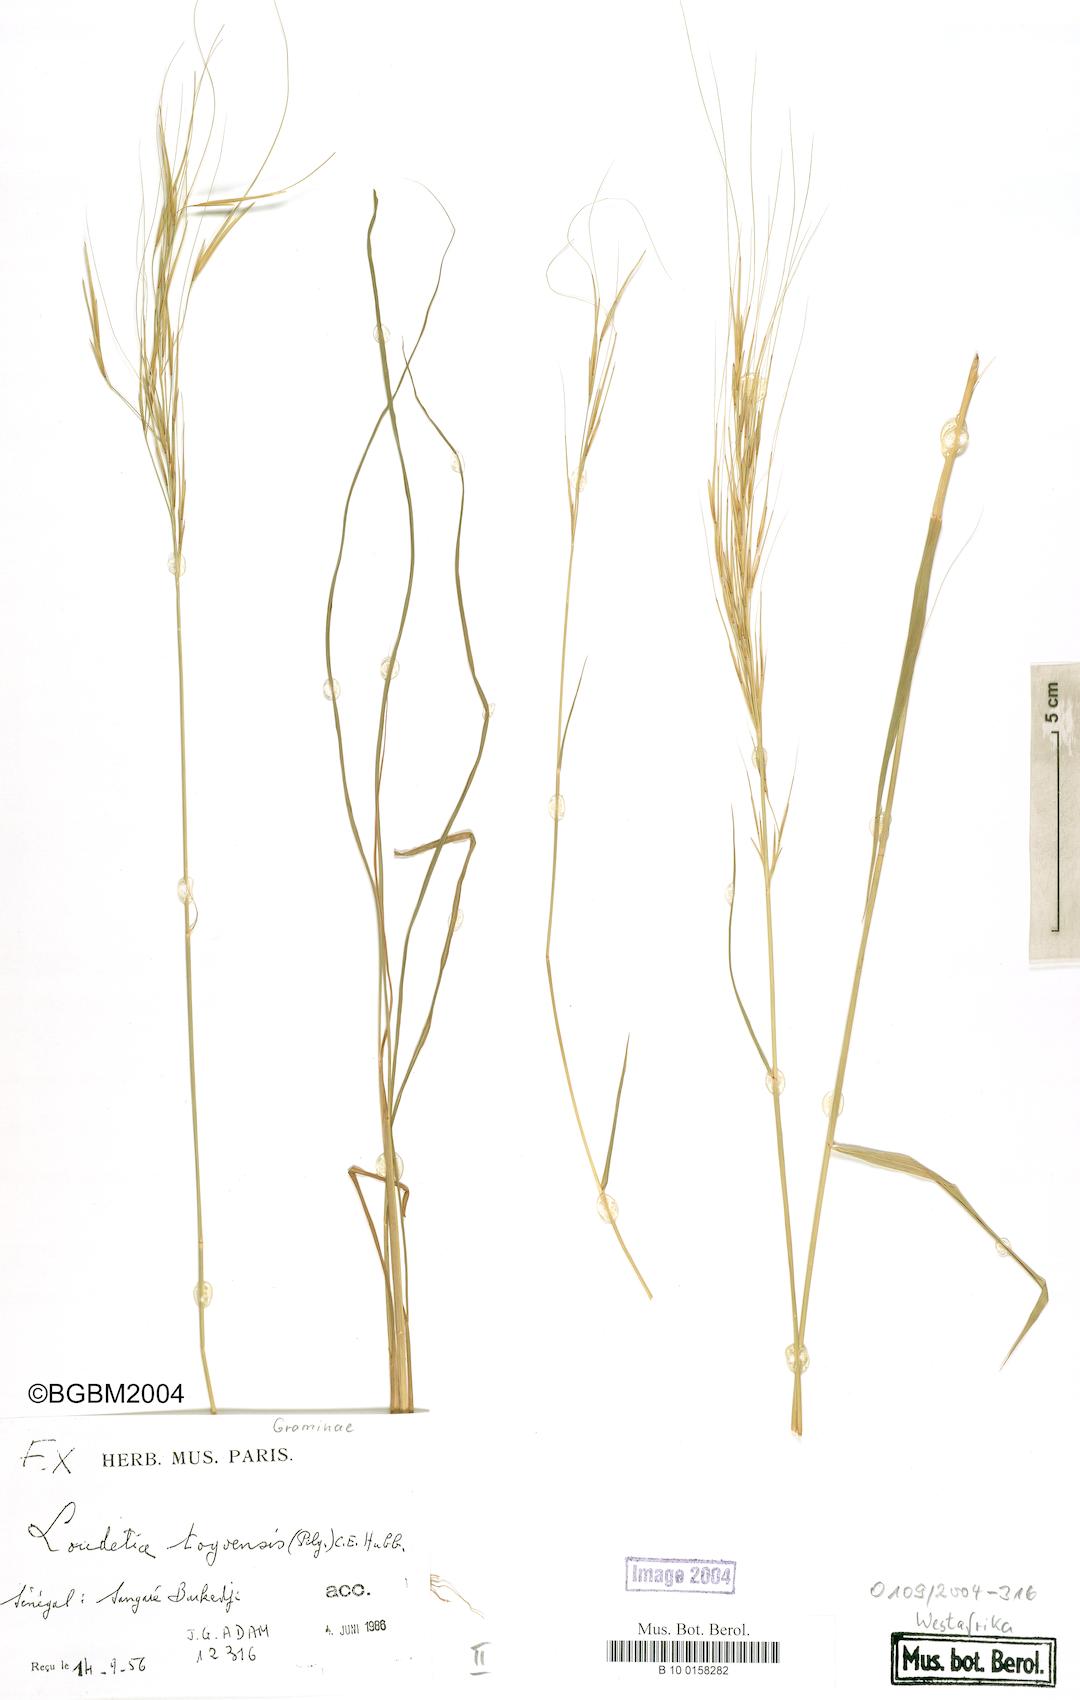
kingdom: Plantae
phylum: Tracheophyta
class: Liliopsida
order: Poales
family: Poaceae
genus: Loudetia
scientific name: Loudetia togoensis
